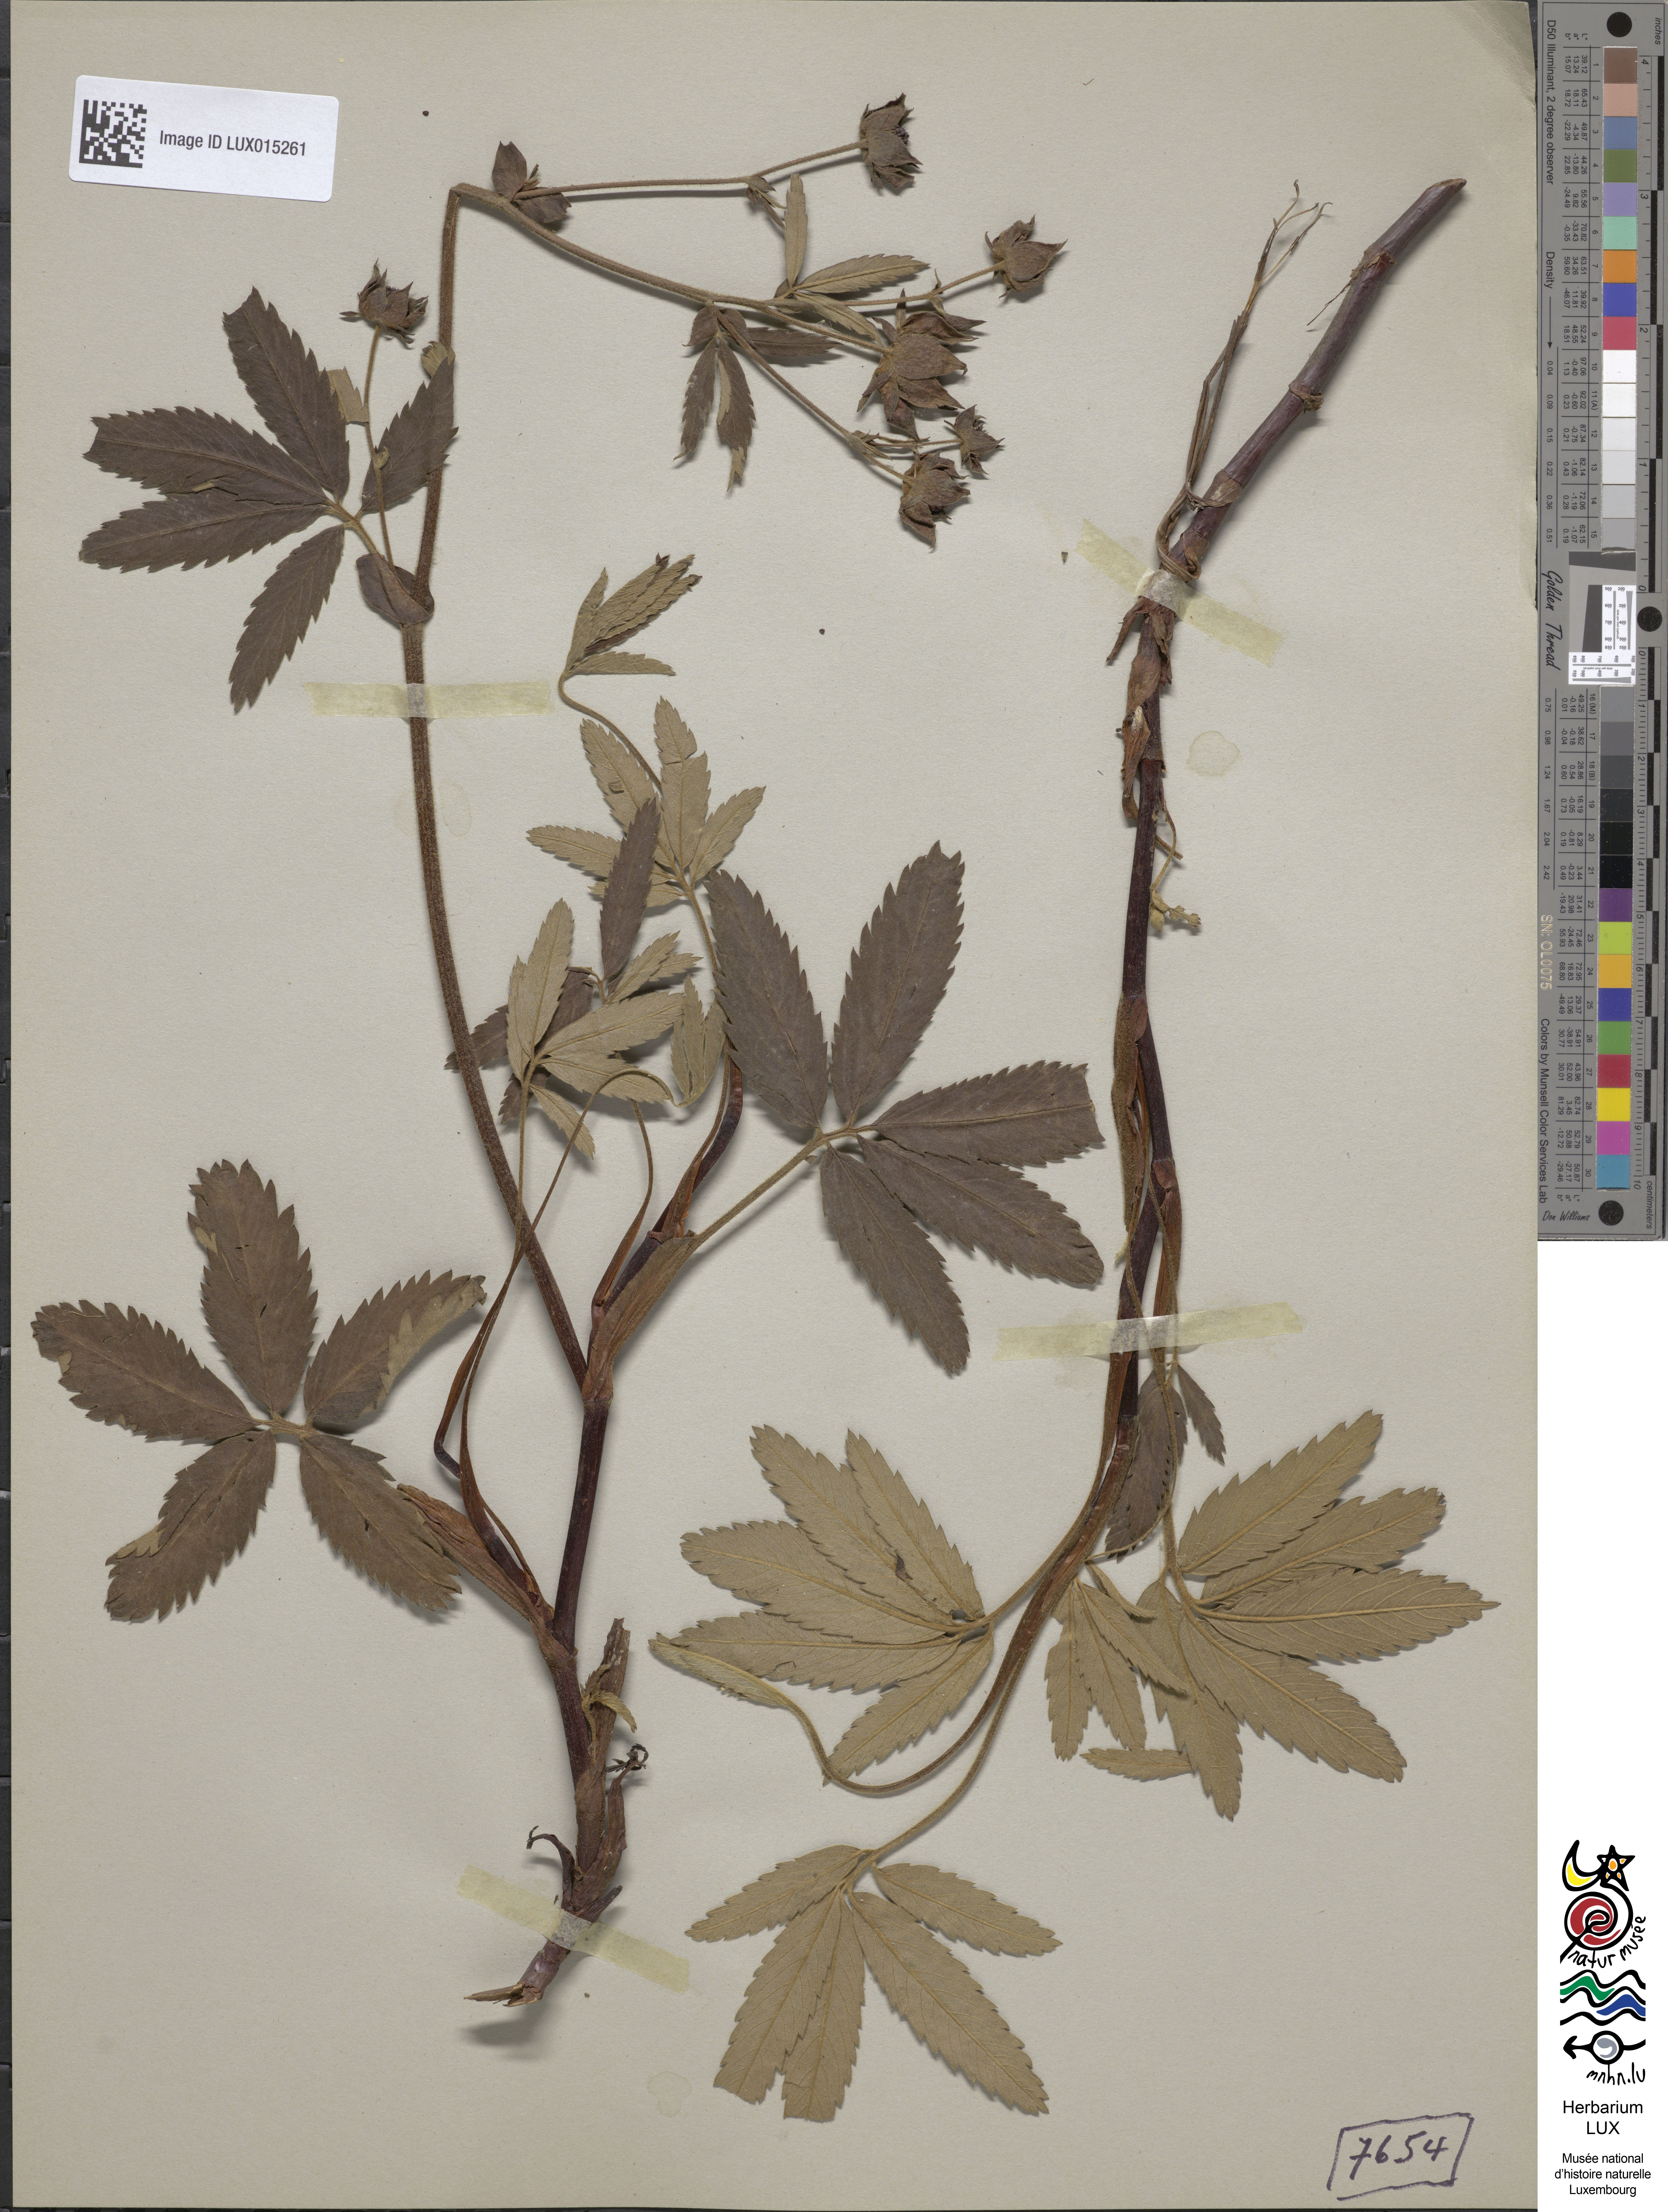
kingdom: Plantae
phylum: Tracheophyta
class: Magnoliopsida
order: Rosales
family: Rosaceae
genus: Comarum
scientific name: Comarum palustre
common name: Marsh cinquefoil
